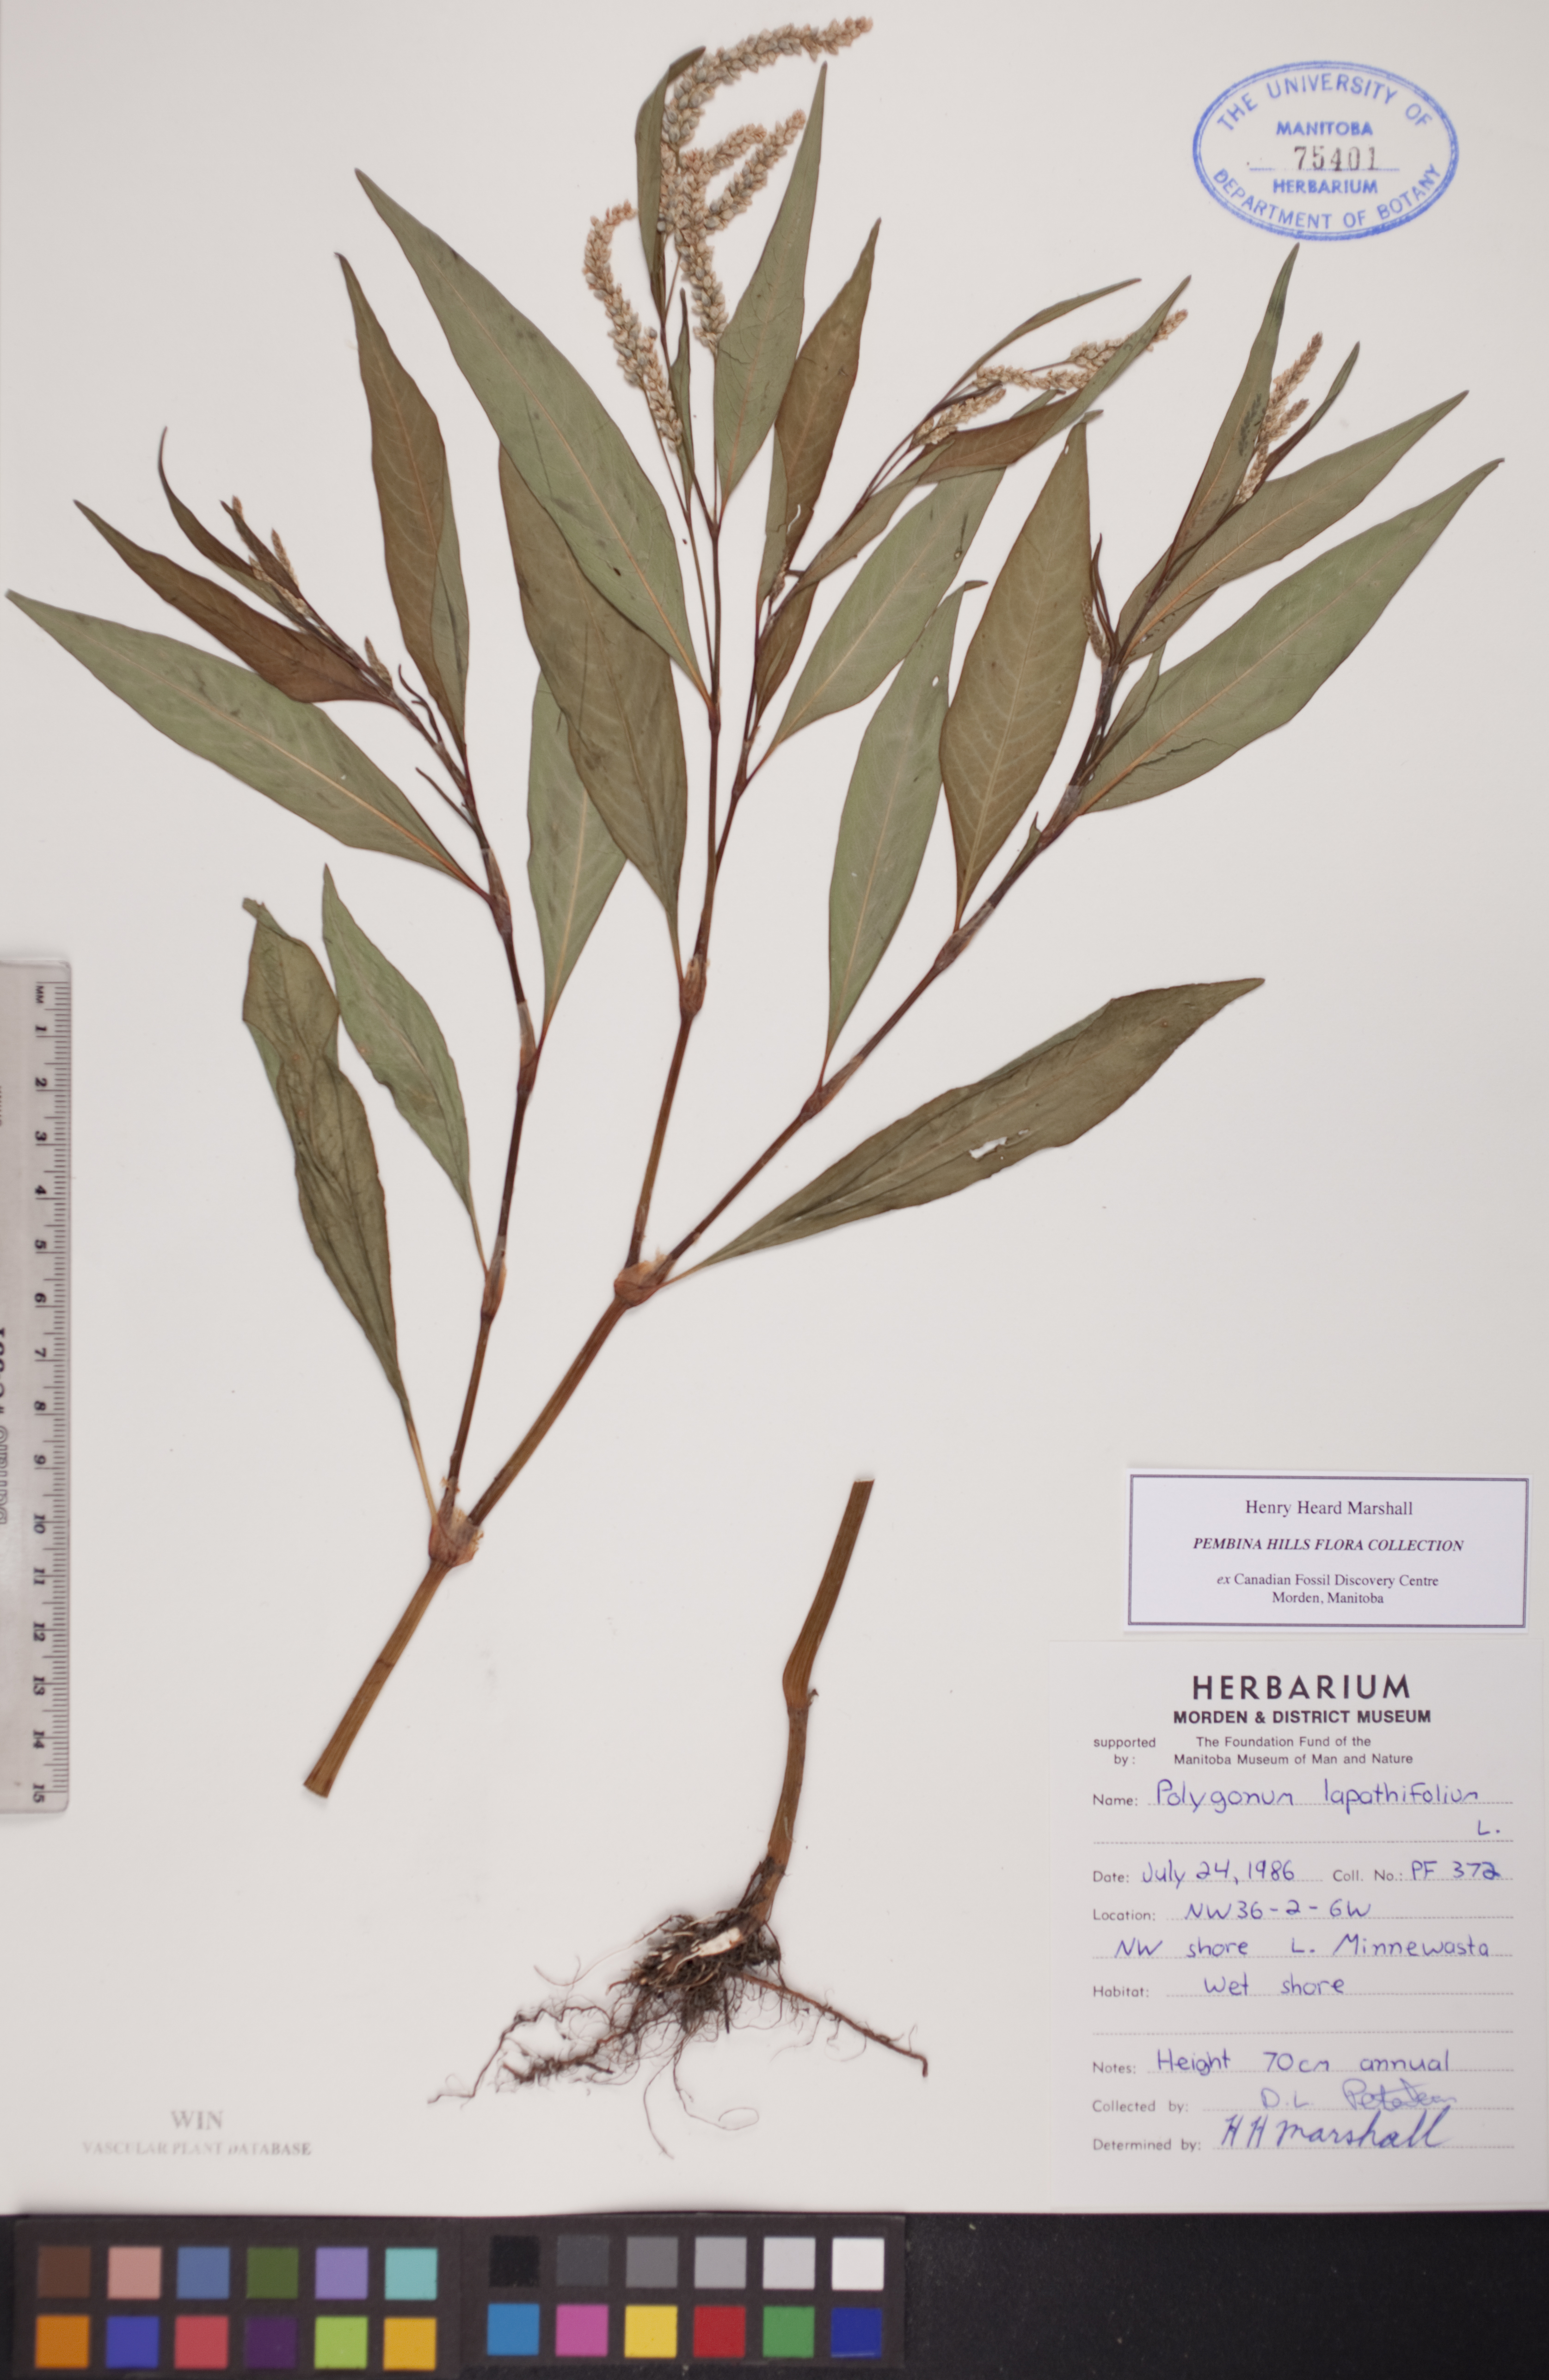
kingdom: Plantae
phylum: Tracheophyta
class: Magnoliopsida
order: Caryophyllales
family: Polygonaceae
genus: Persicaria
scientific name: Persicaria lapathifolia
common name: Curlytop knotweed
